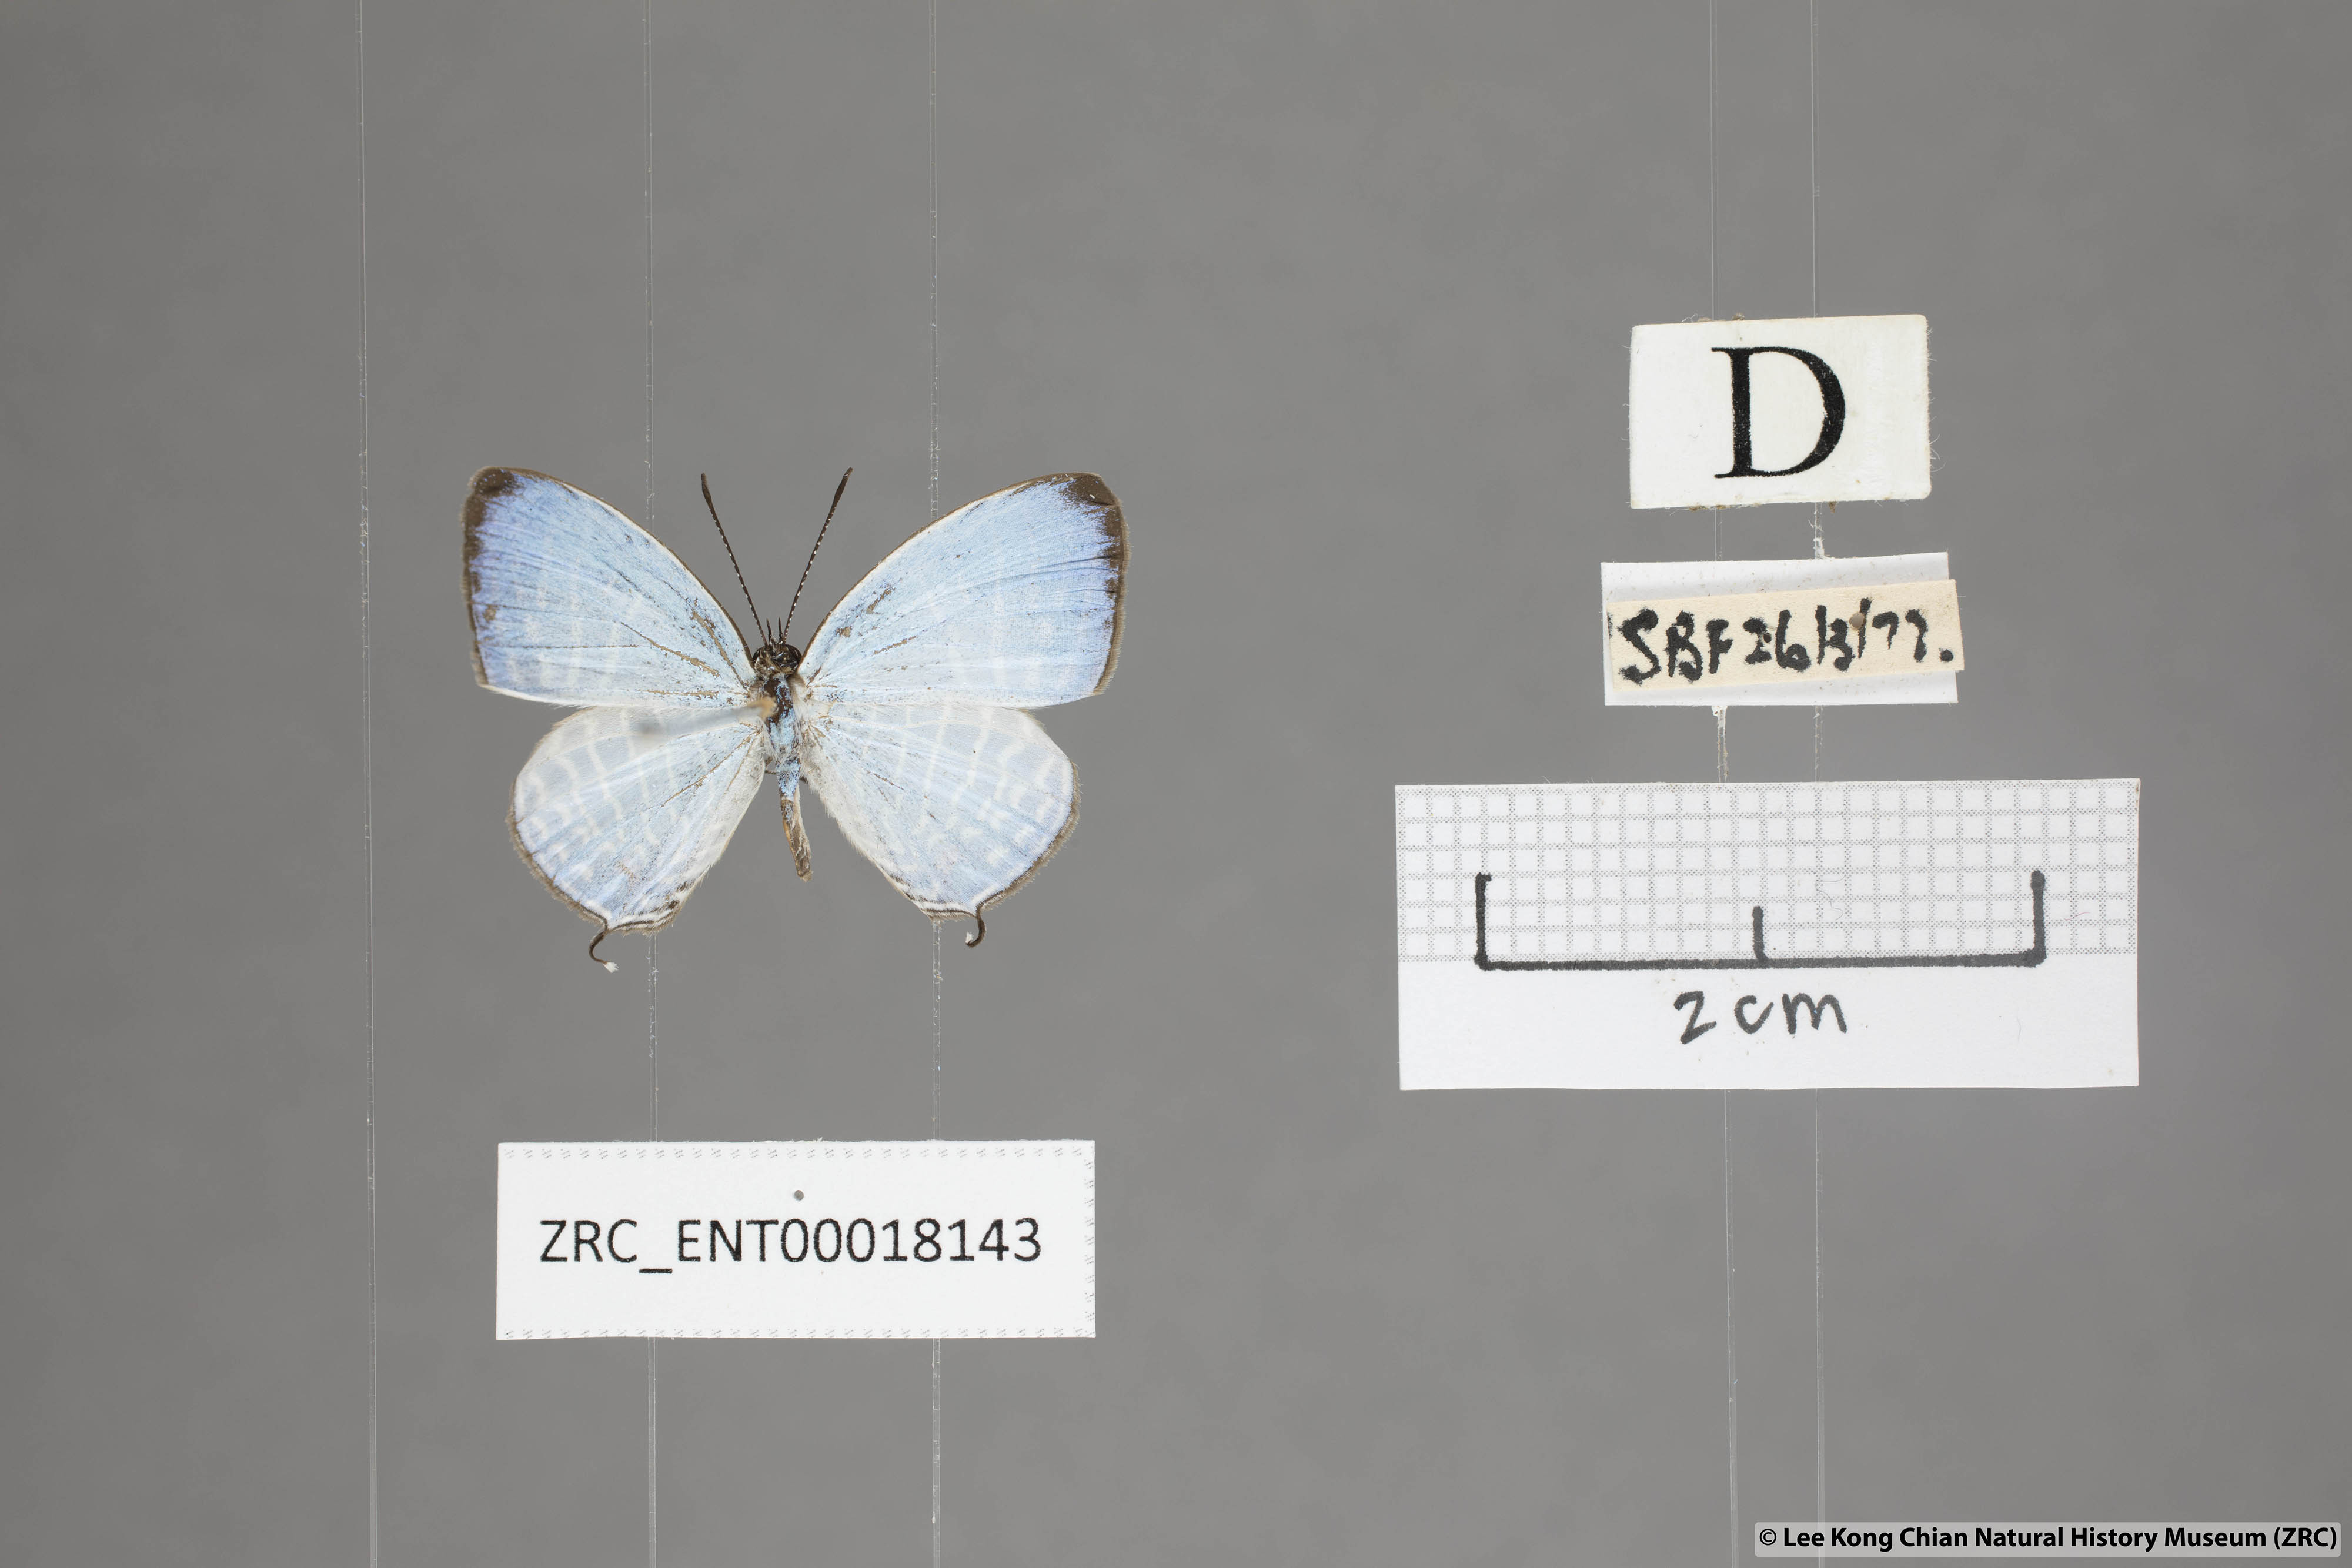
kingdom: Animalia
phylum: Arthropoda
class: Insecta
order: Lepidoptera
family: Lycaenidae
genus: Jamides
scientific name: Jamides parasaturata
